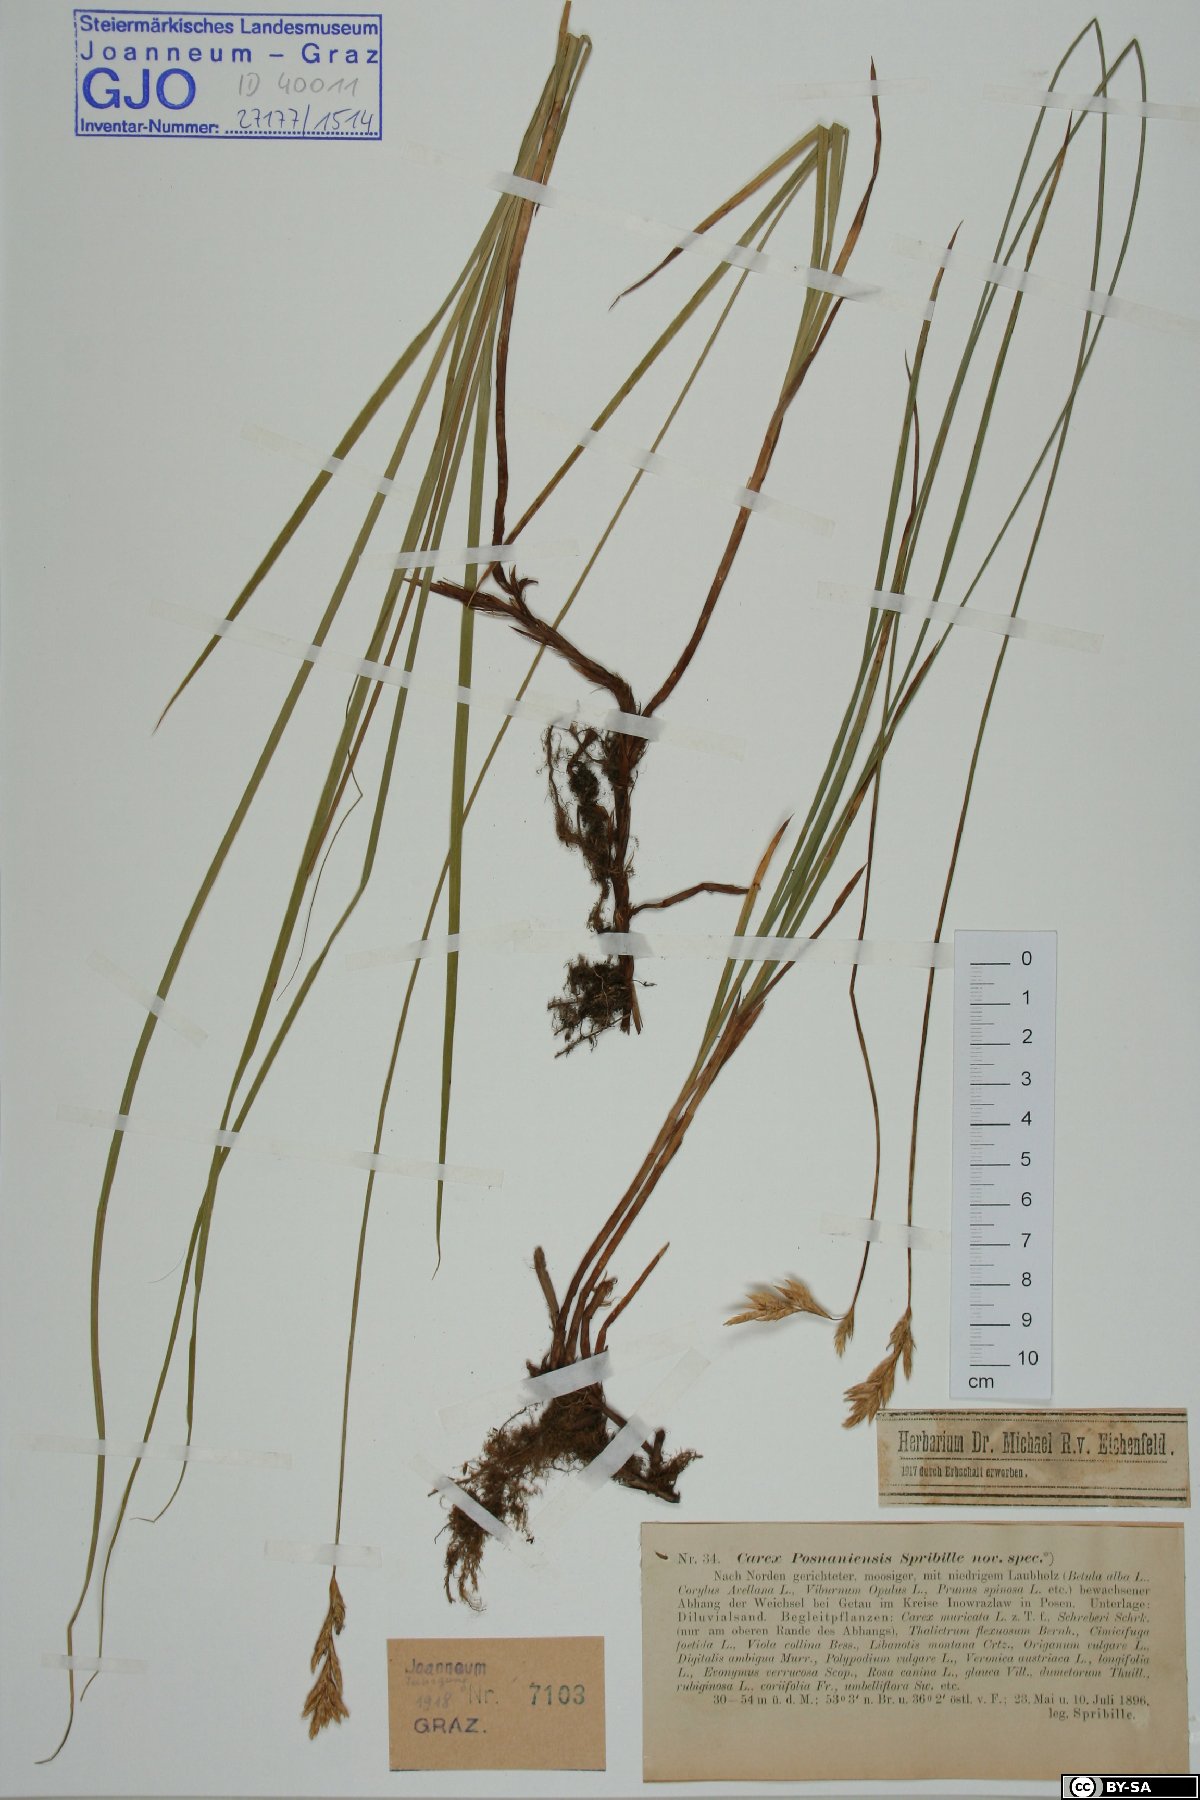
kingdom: Plantae
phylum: Tracheophyta
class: Liliopsida
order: Poales
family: Cyperaceae
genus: Carex
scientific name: Carex repens
